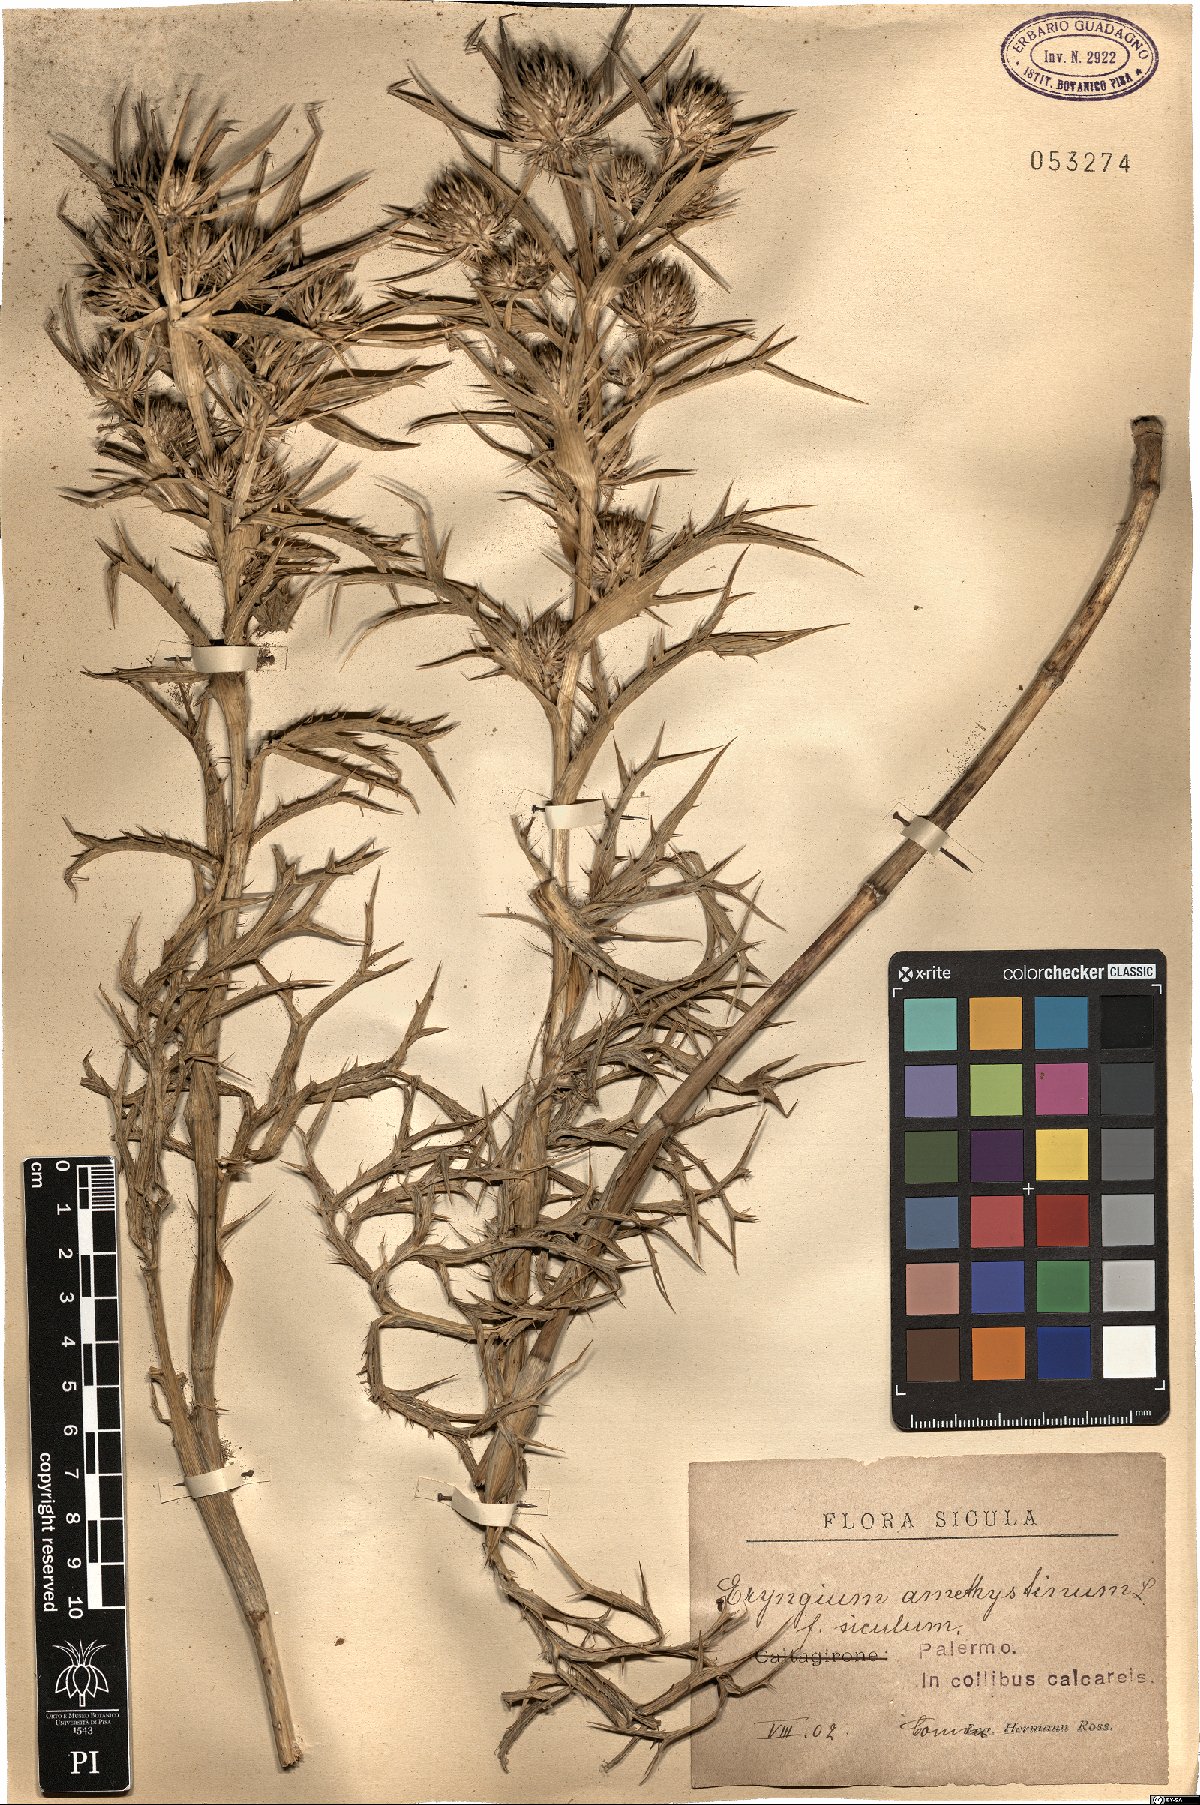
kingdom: Plantae
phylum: Tracheophyta
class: Magnoliopsida
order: Apiales
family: Apiaceae
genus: Eryngium
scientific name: Eryngium amethystinum
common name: Amethyst eryngo
